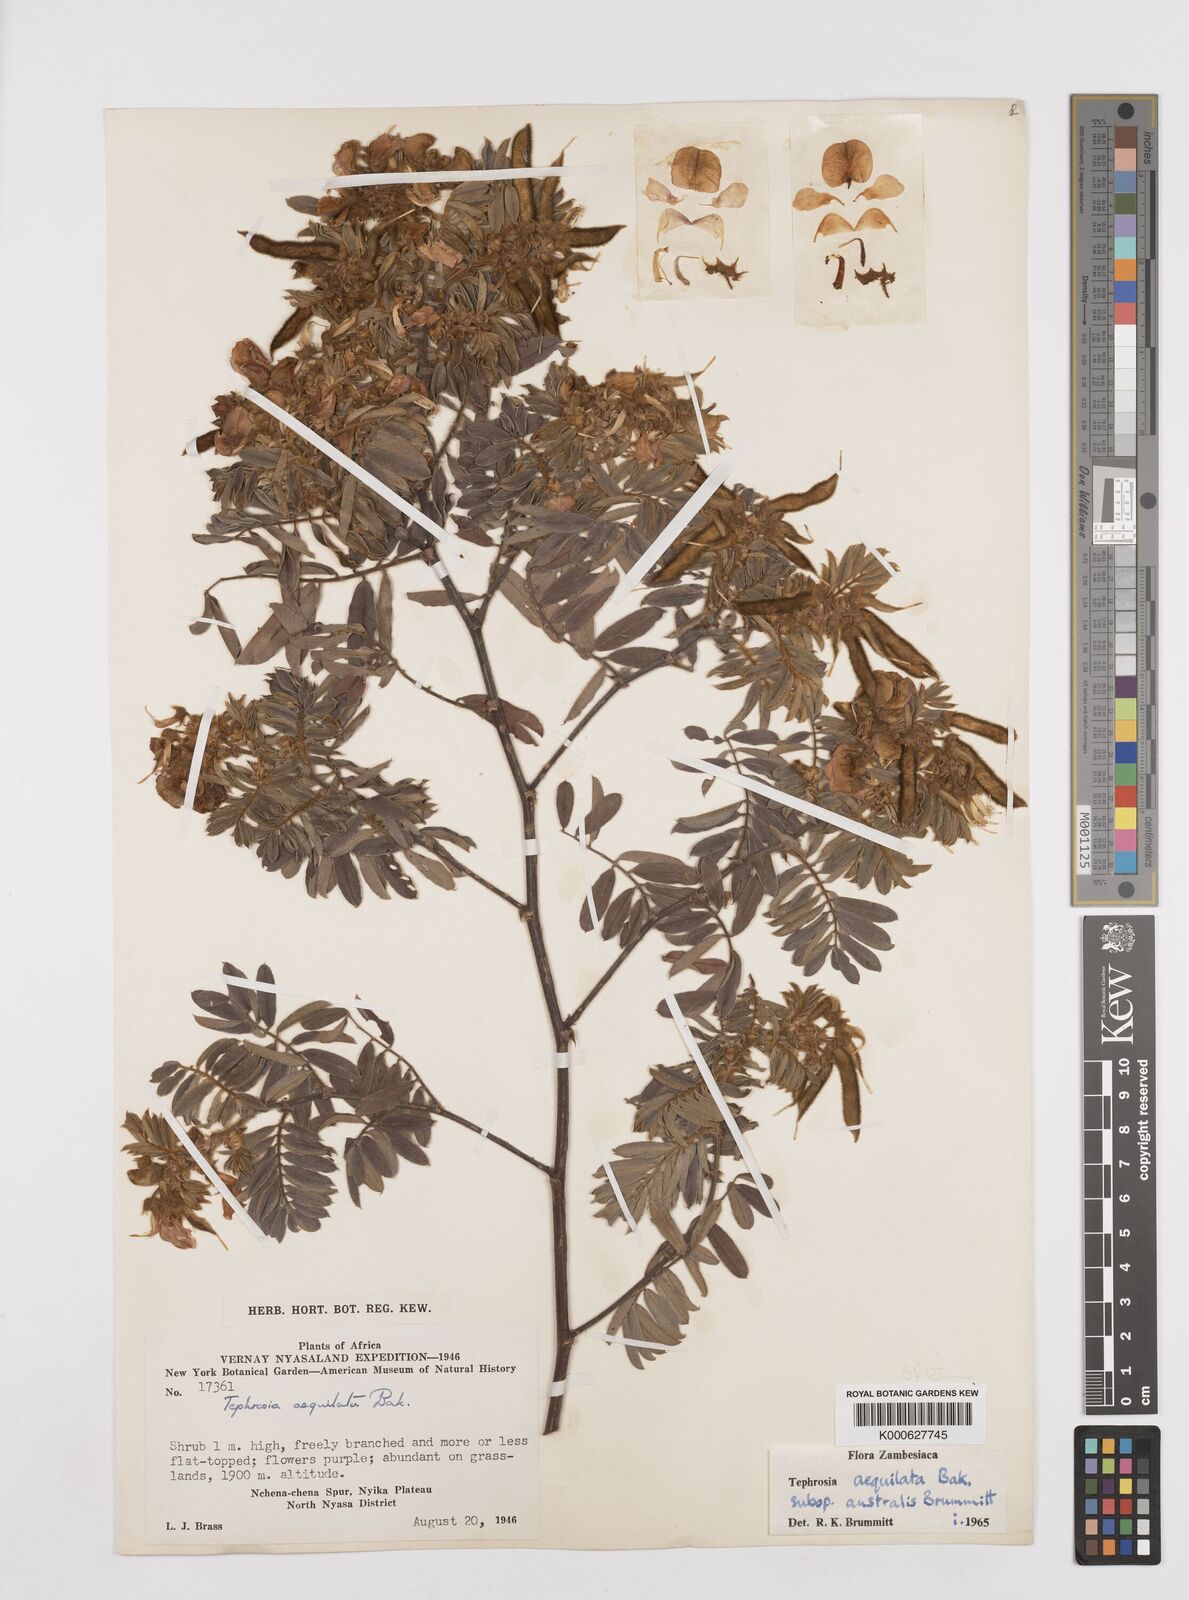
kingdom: Plantae
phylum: Tracheophyta
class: Magnoliopsida
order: Fabales
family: Fabaceae
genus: Tephrosia
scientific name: Tephrosia
